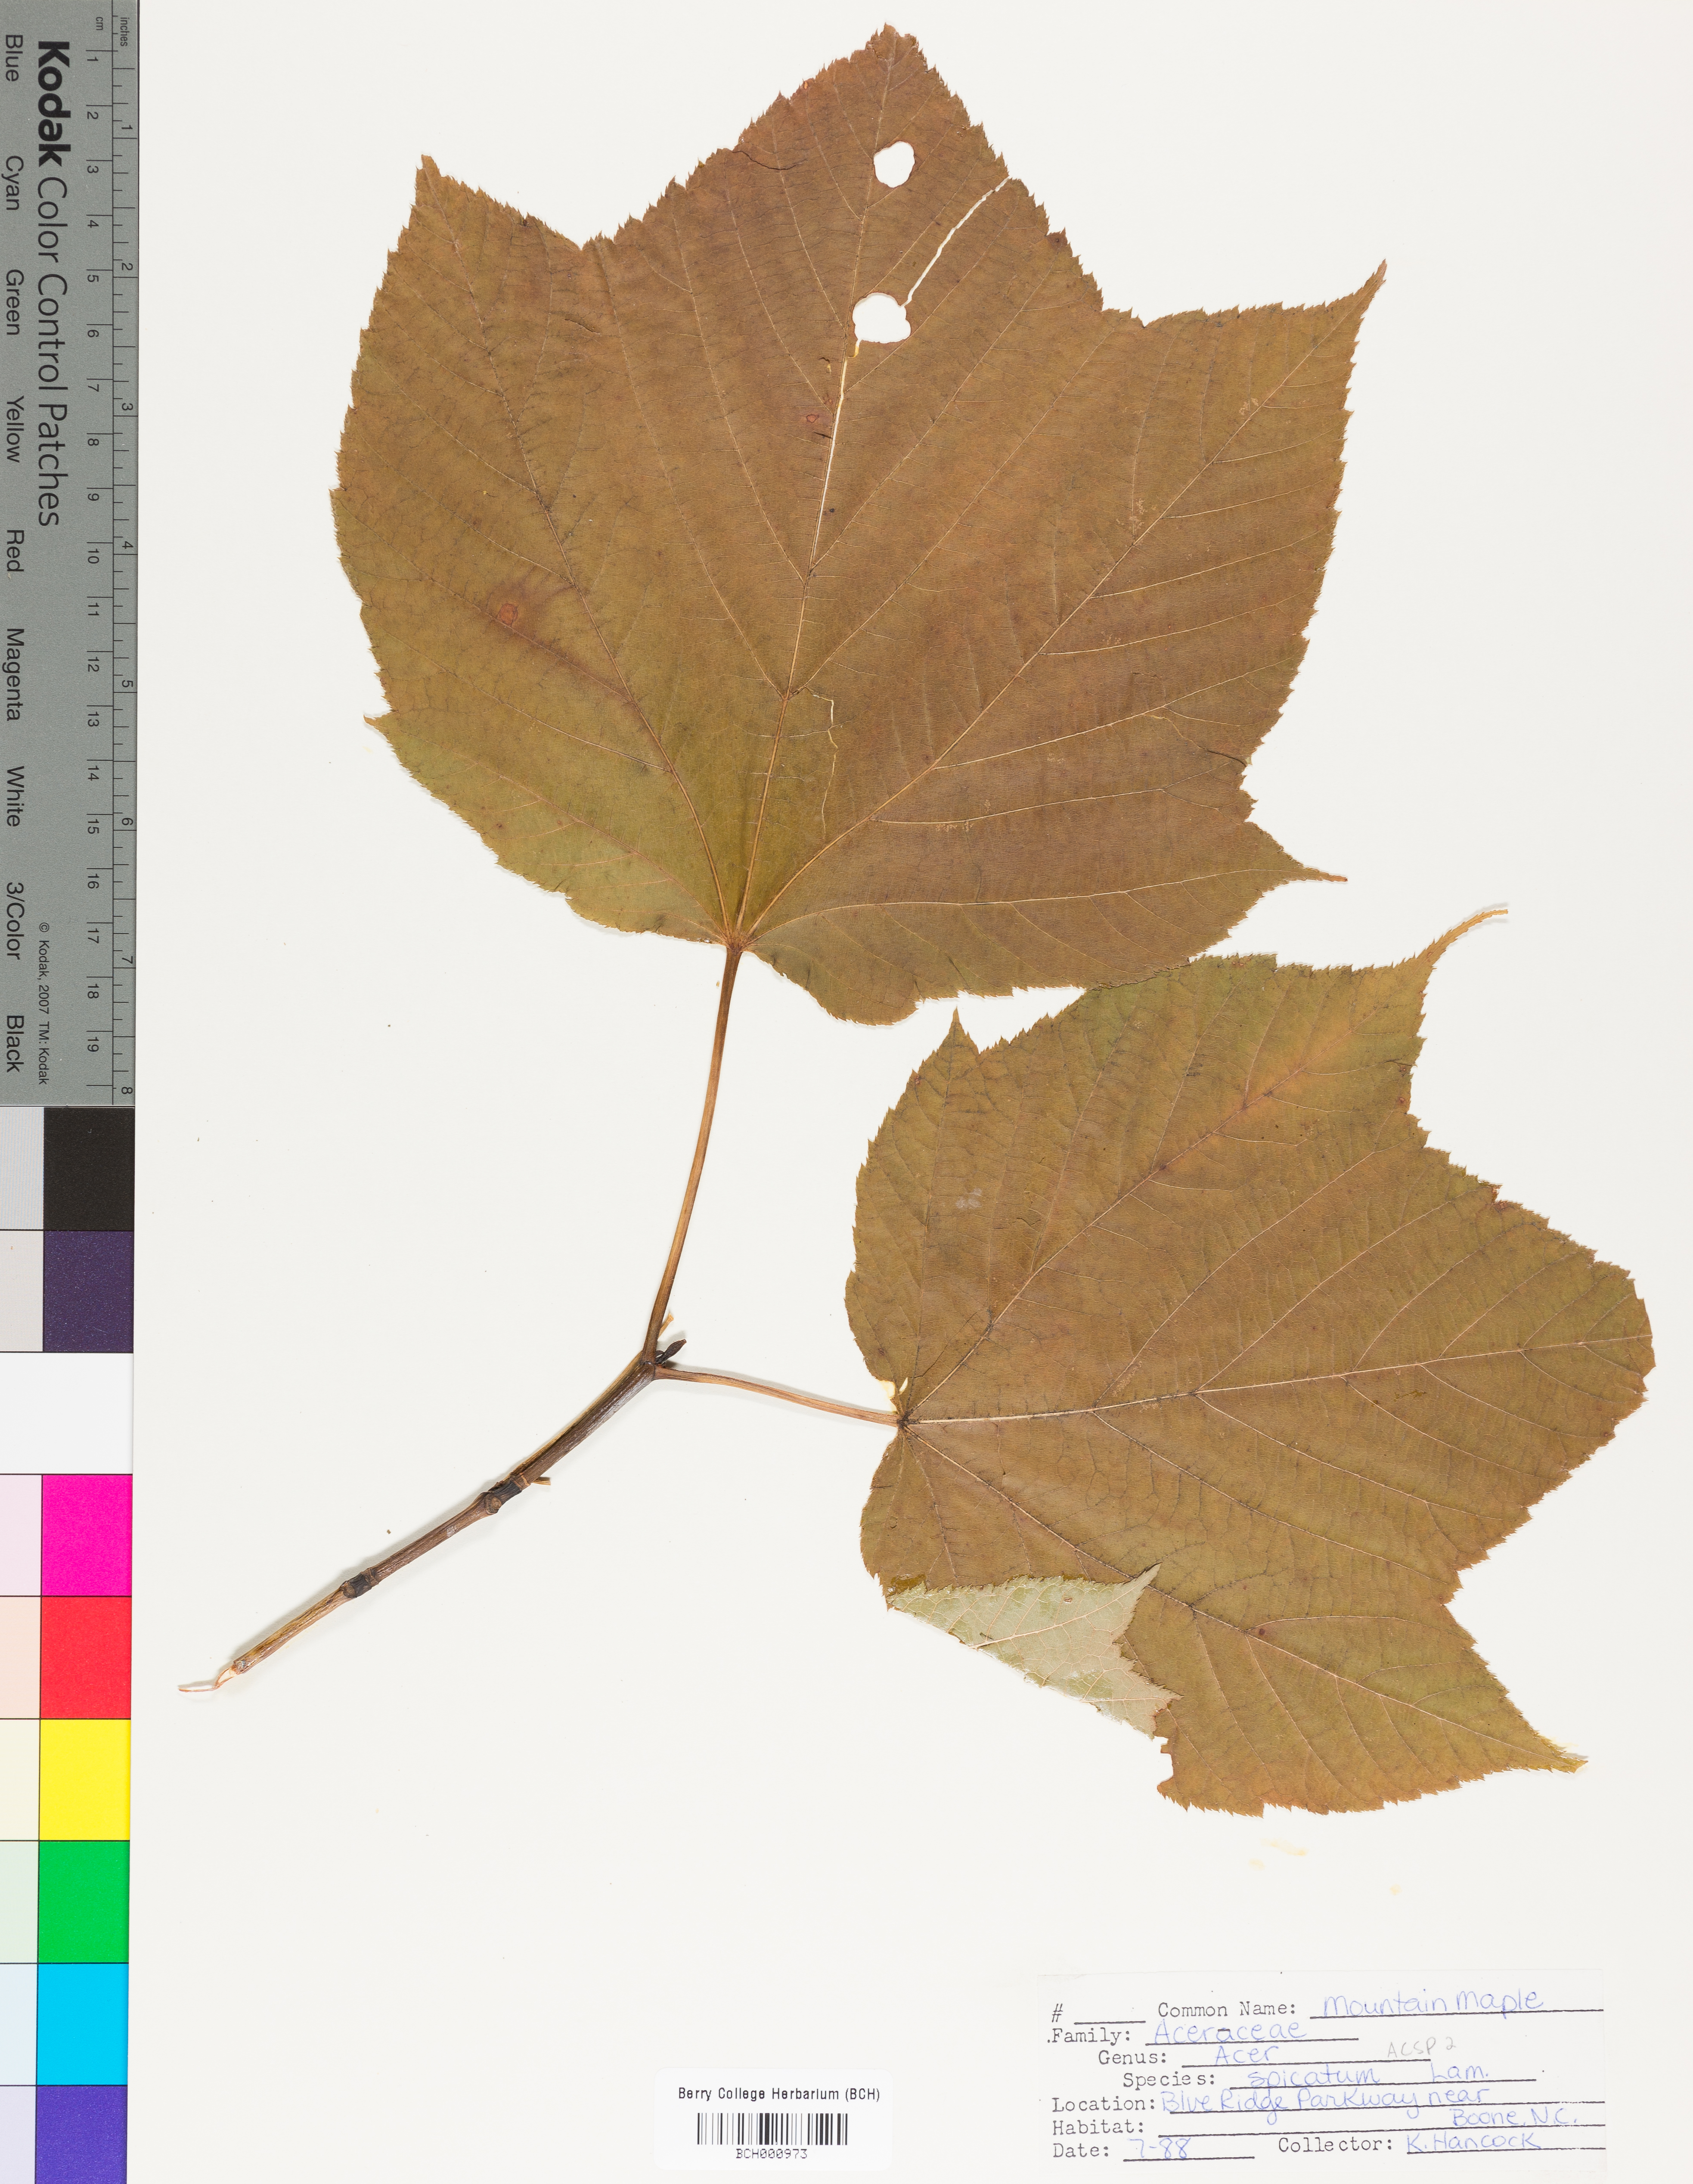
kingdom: Plantae
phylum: Tracheophyta
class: Magnoliopsida
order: Sapindales
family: Sapindaceae
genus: Acer
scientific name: Acer spicatum
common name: Mountain maple
